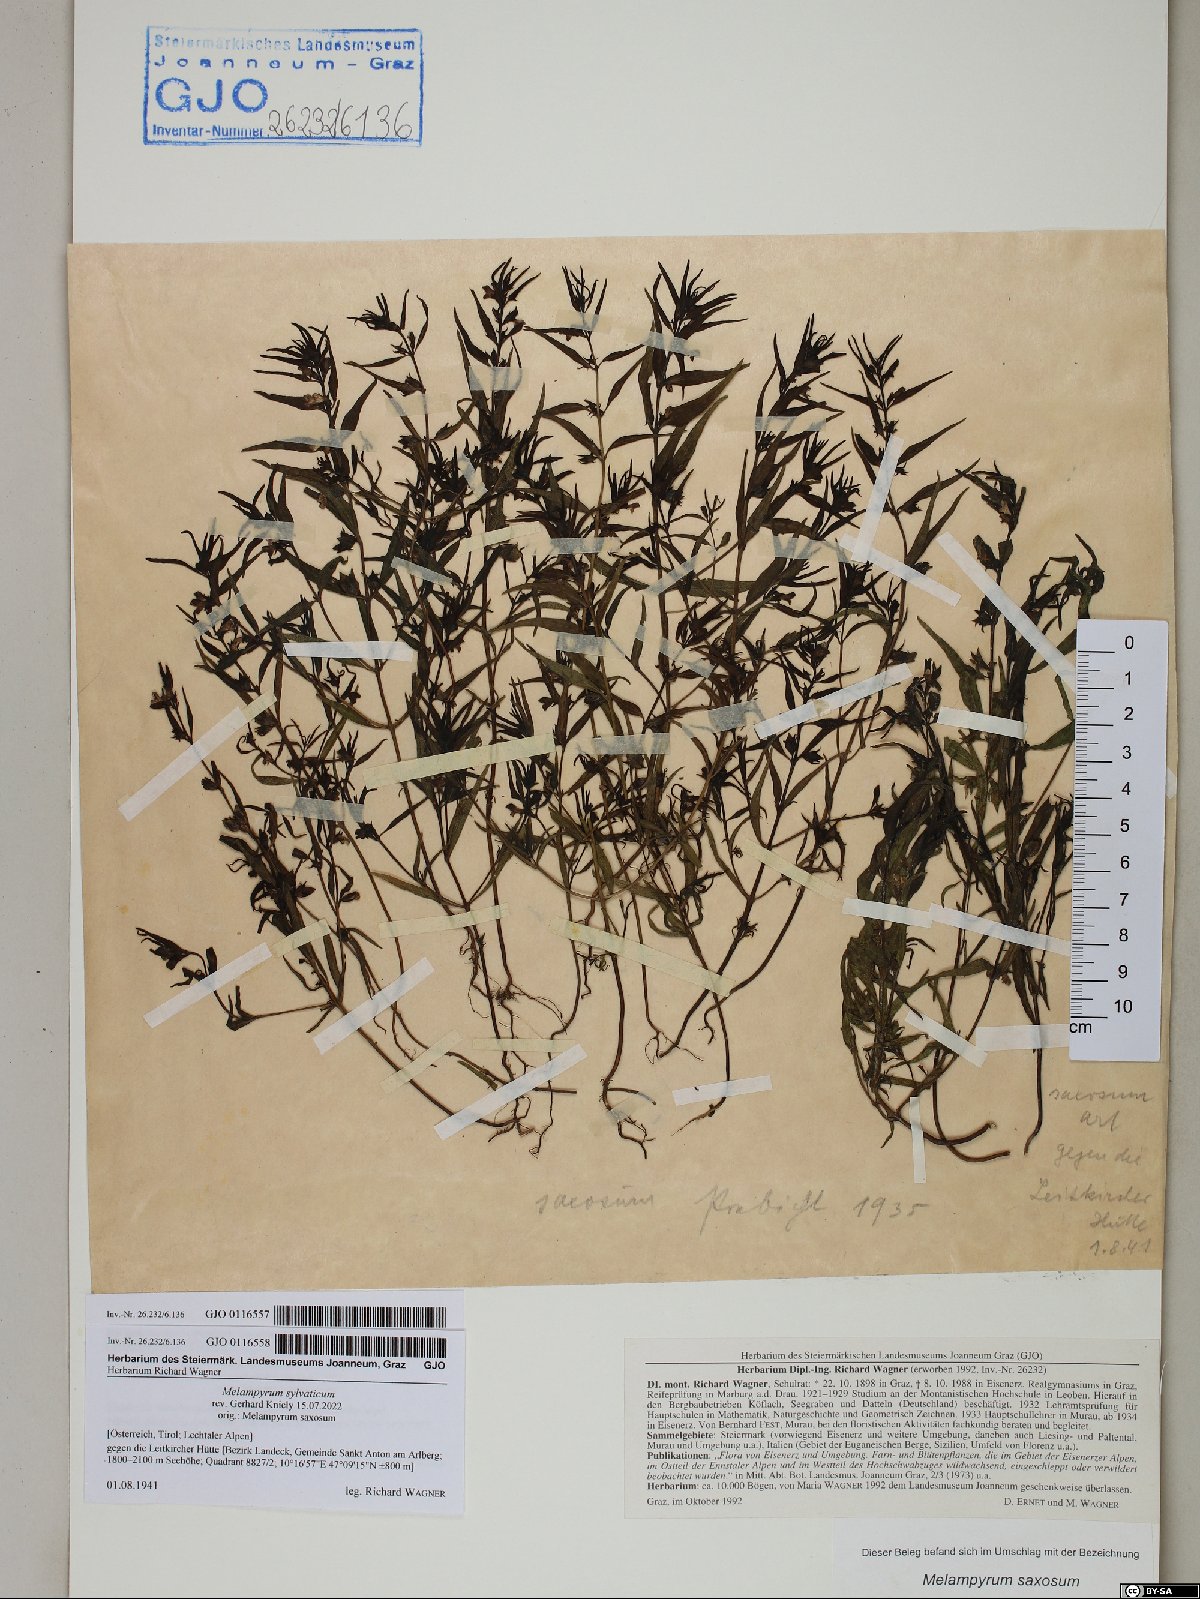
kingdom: Plantae
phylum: Tracheophyta
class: Magnoliopsida
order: Lamiales
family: Orobanchaceae
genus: Melampyrum
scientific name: Melampyrum sylvaticum
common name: Small cow-wheat
